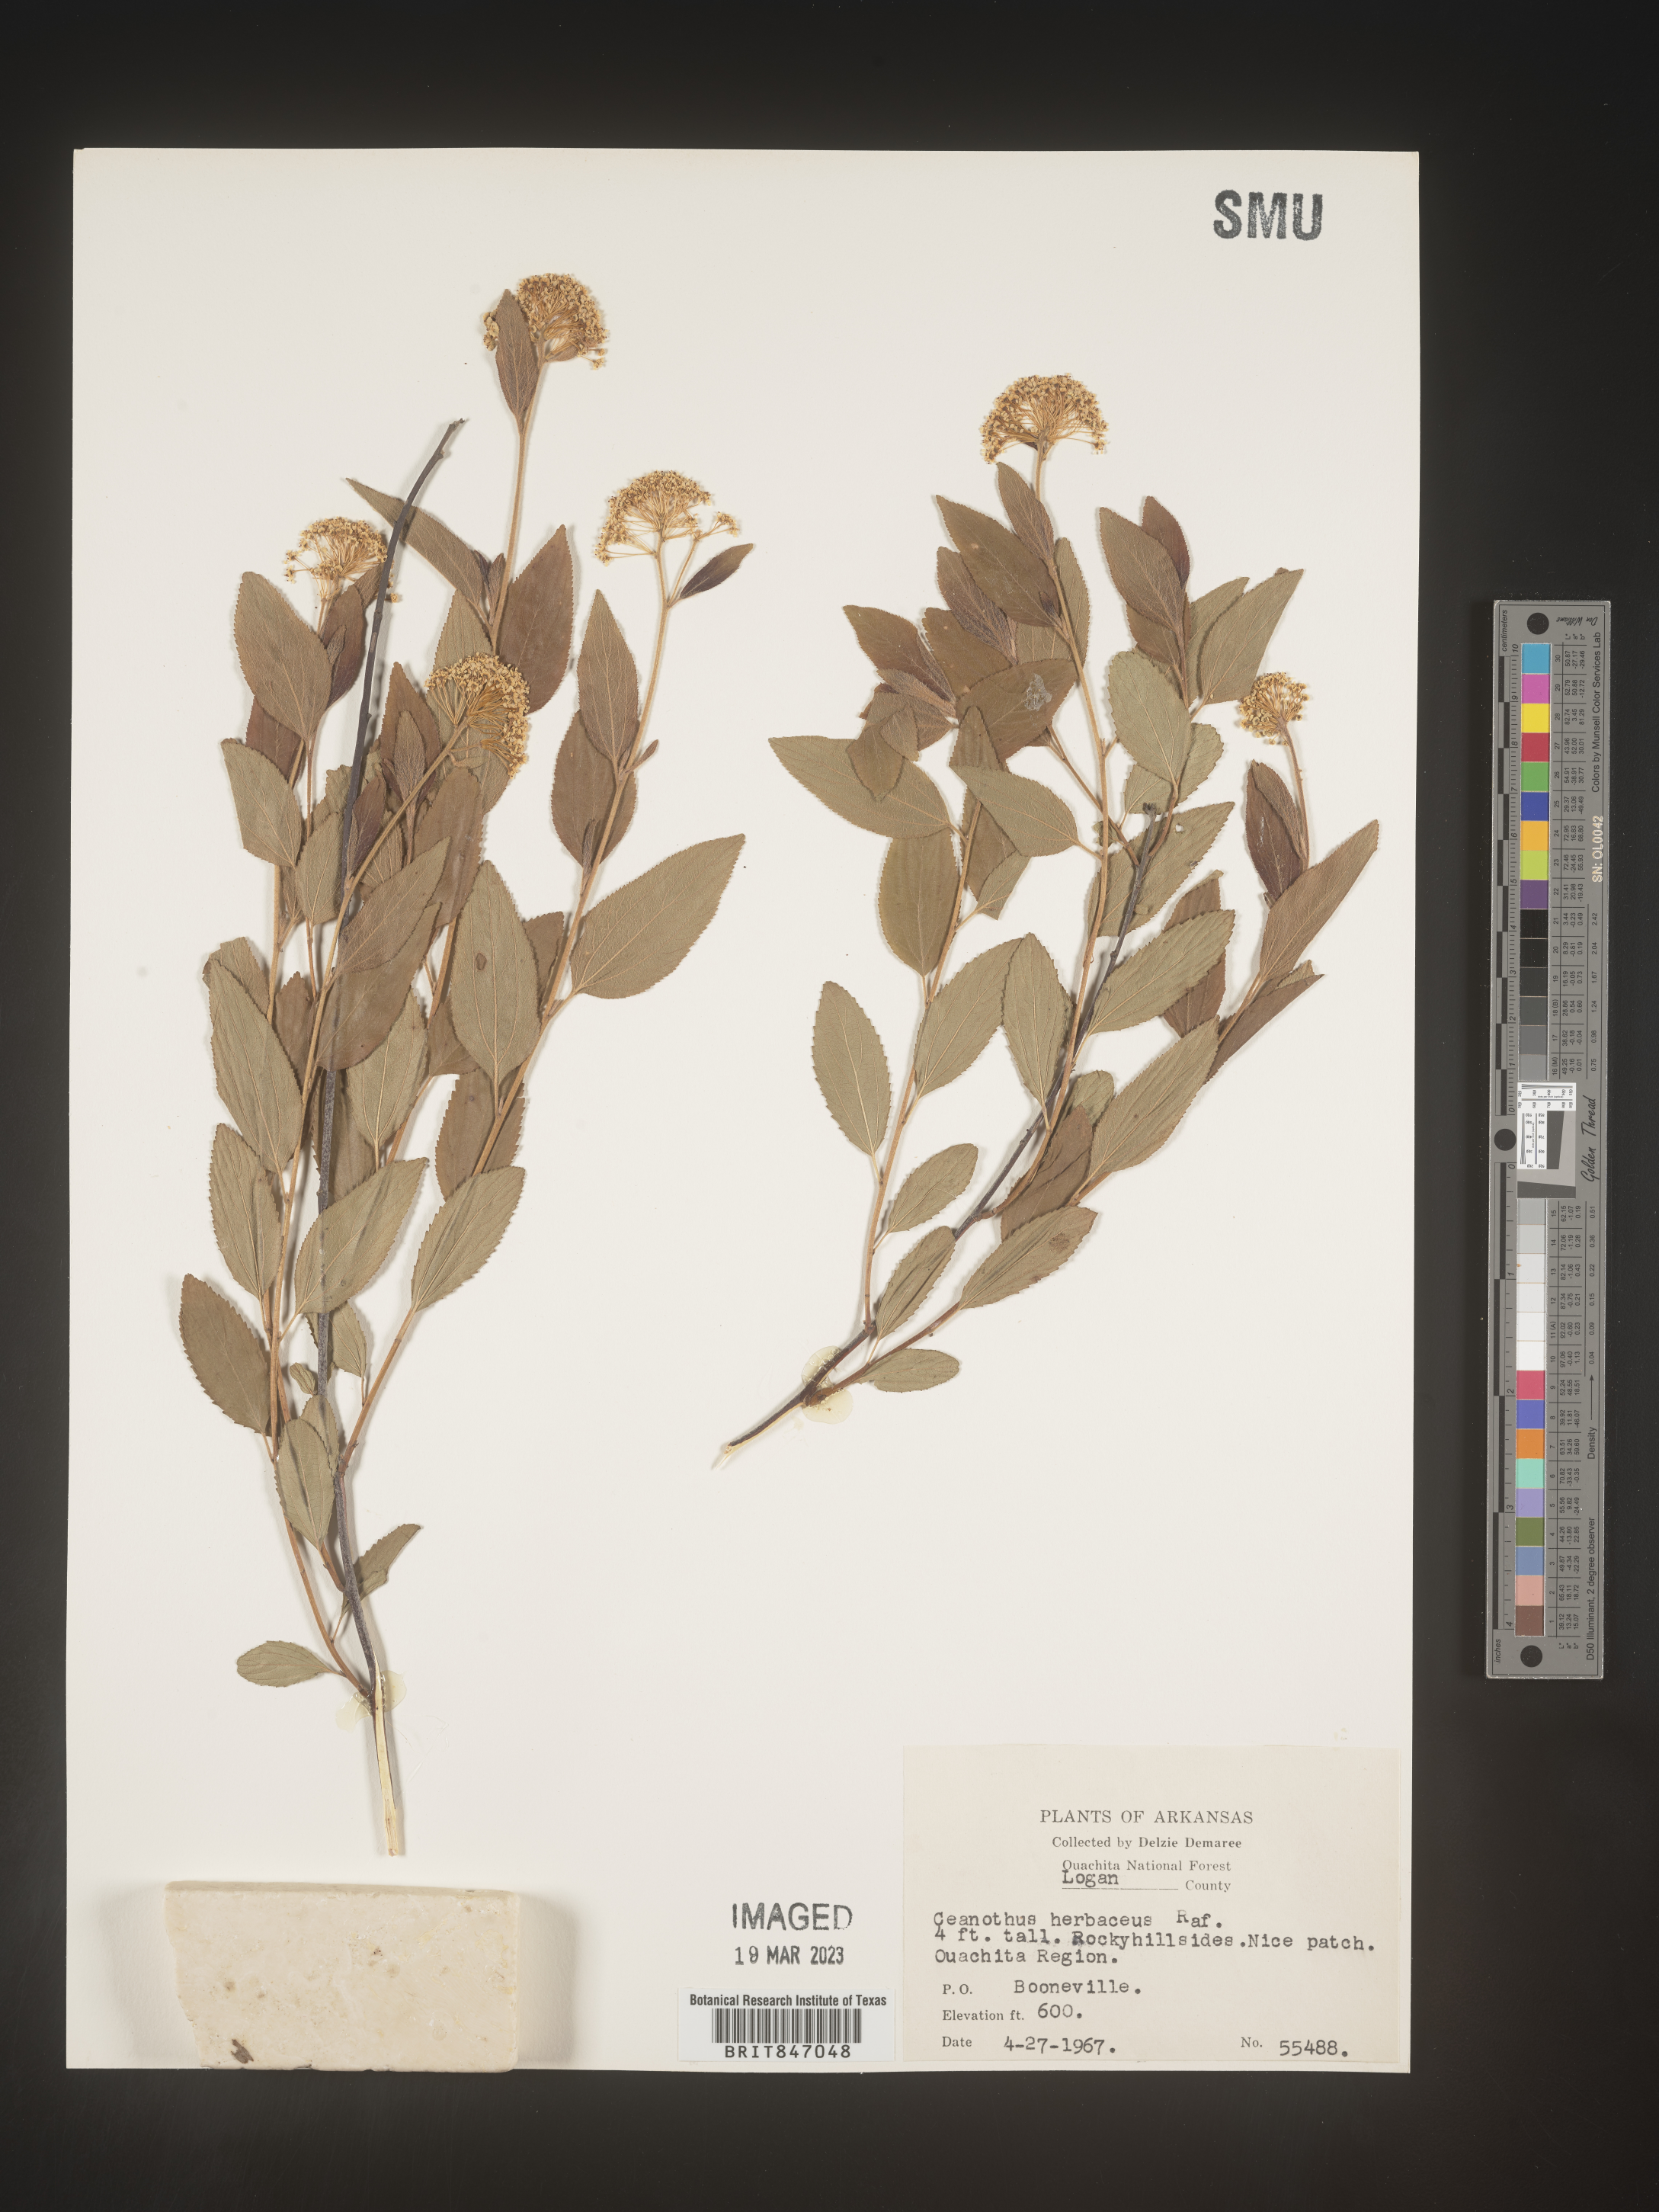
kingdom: Plantae
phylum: Tracheophyta
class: Magnoliopsida
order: Rosales
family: Rhamnaceae
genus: Ceanothus
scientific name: Ceanothus herbaceus
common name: Inland ceanothus
